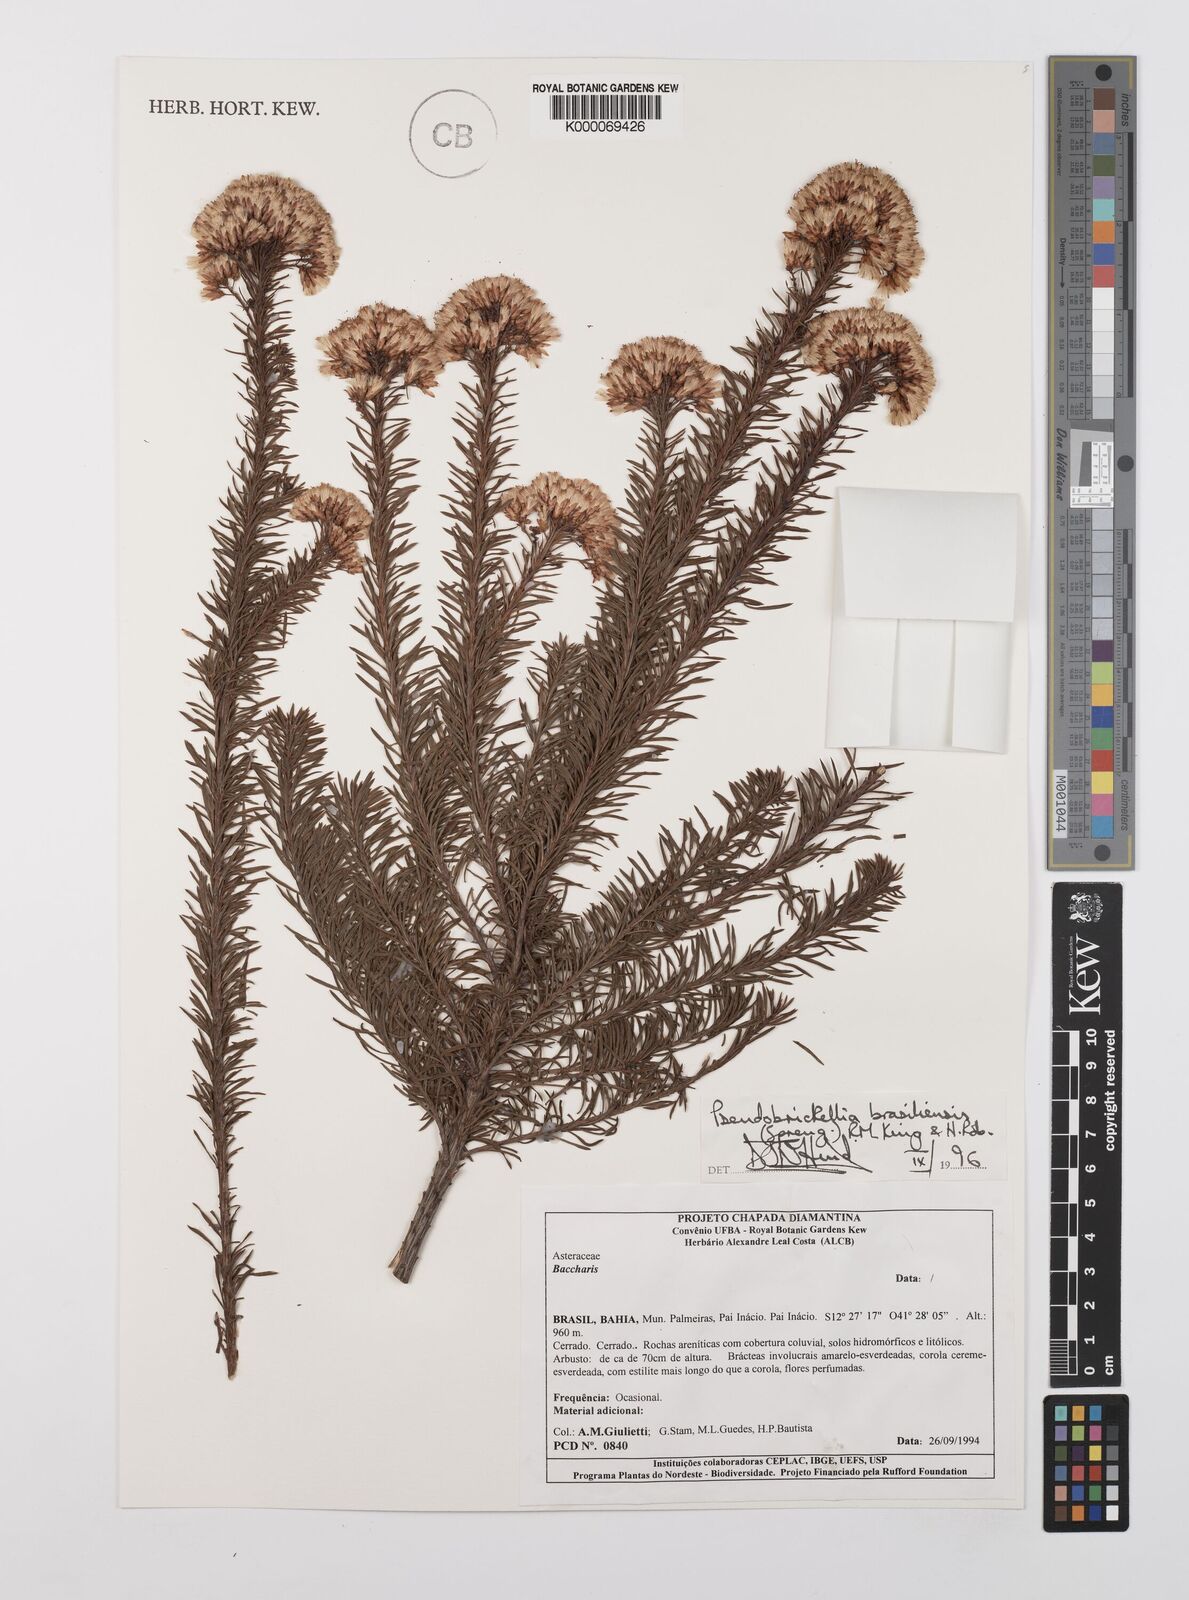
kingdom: Plantae
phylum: Tracheophyta
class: Magnoliopsida
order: Asterales
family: Asteraceae
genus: Pseudobrickellia
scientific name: Pseudobrickellia brasiliensis
